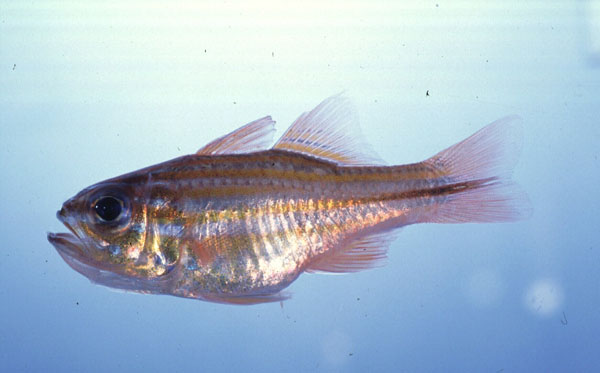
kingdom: Animalia
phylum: Chordata
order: Perciformes
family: Apogonidae
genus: Apogon
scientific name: Apogon nitidus
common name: Bluespot cardinal
